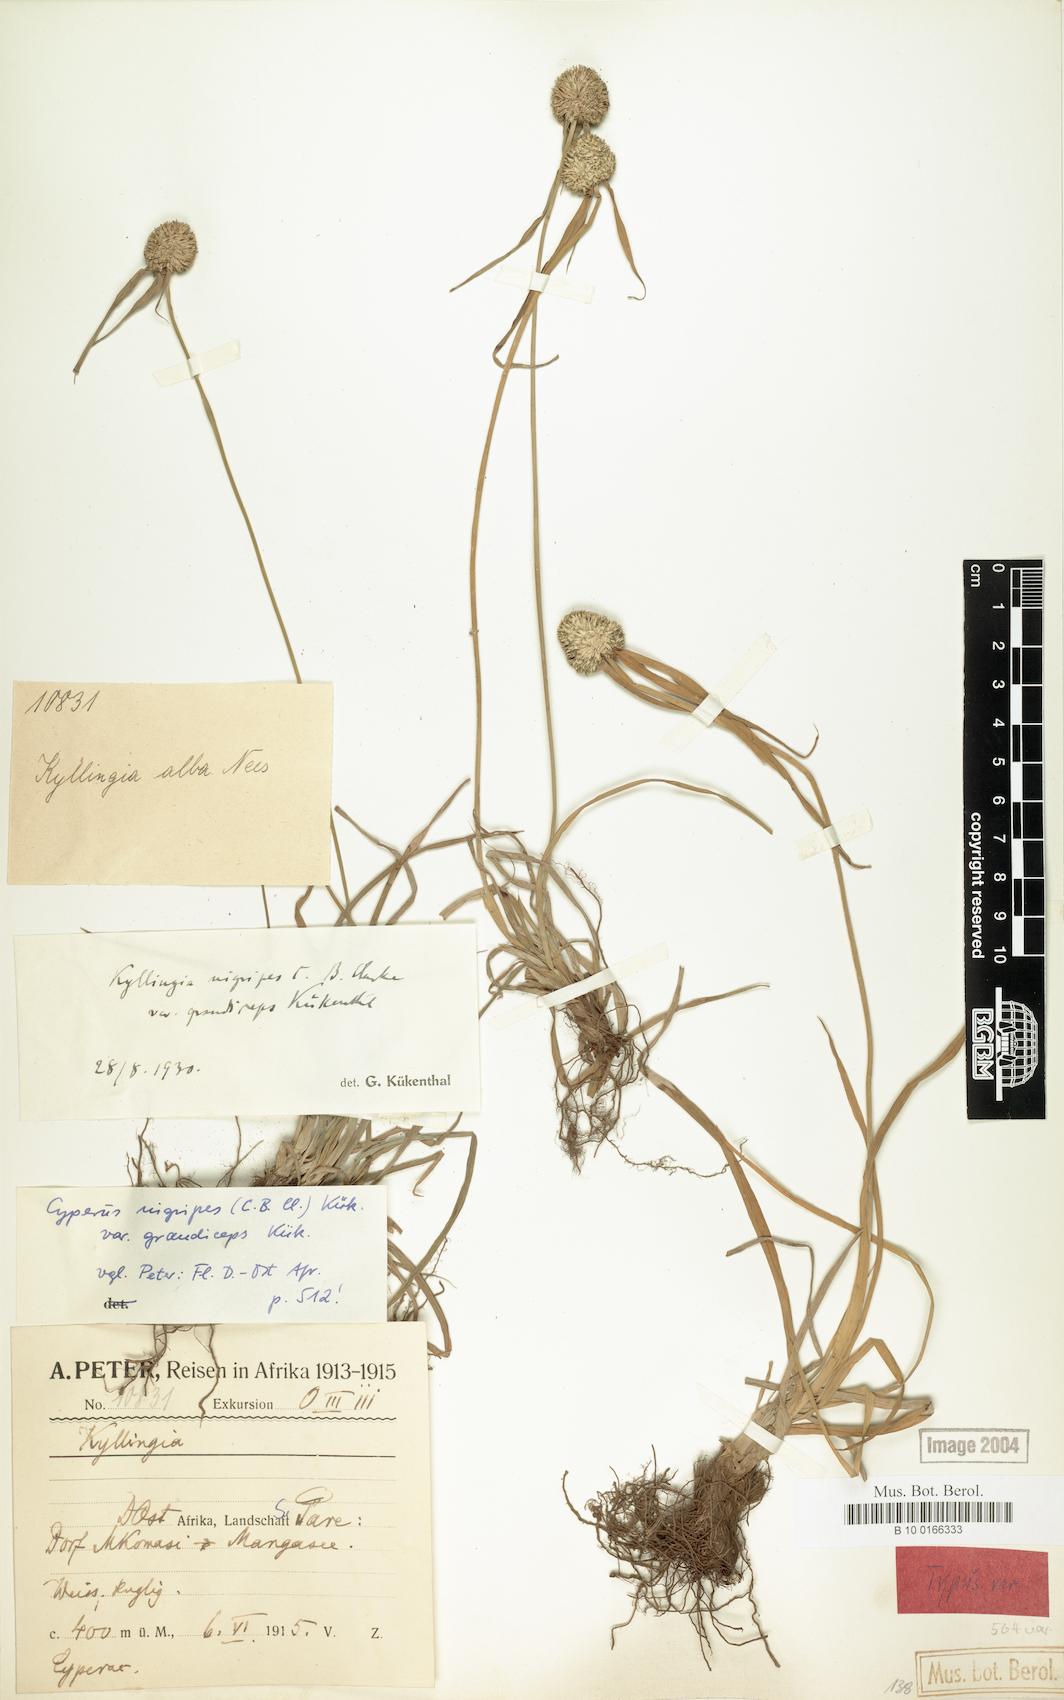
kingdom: Plantae
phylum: Tracheophyta
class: Liliopsida
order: Poales
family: Cyperaceae
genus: Cyperus
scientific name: Cyperus alatus
